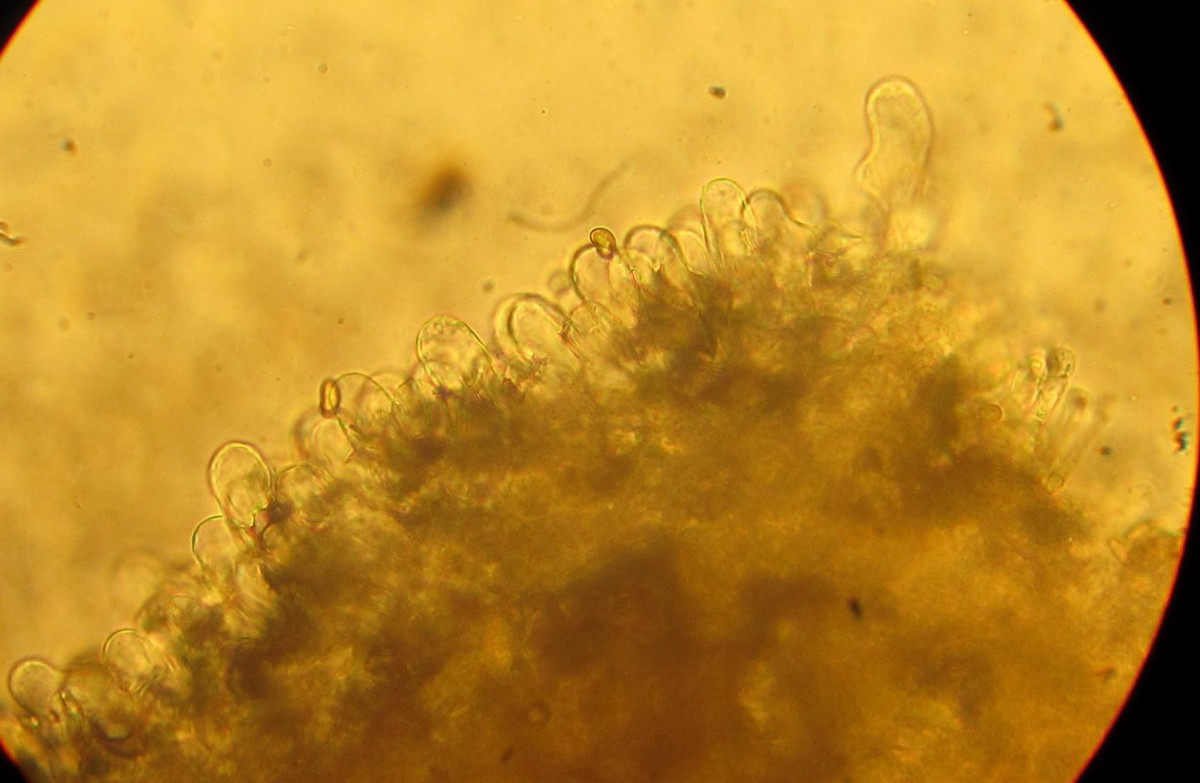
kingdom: Fungi
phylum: Basidiomycota
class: Agaricomycetes
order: Agaricales
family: Inocybaceae
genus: Inosperma
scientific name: Inosperma
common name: strågul trævlhat
